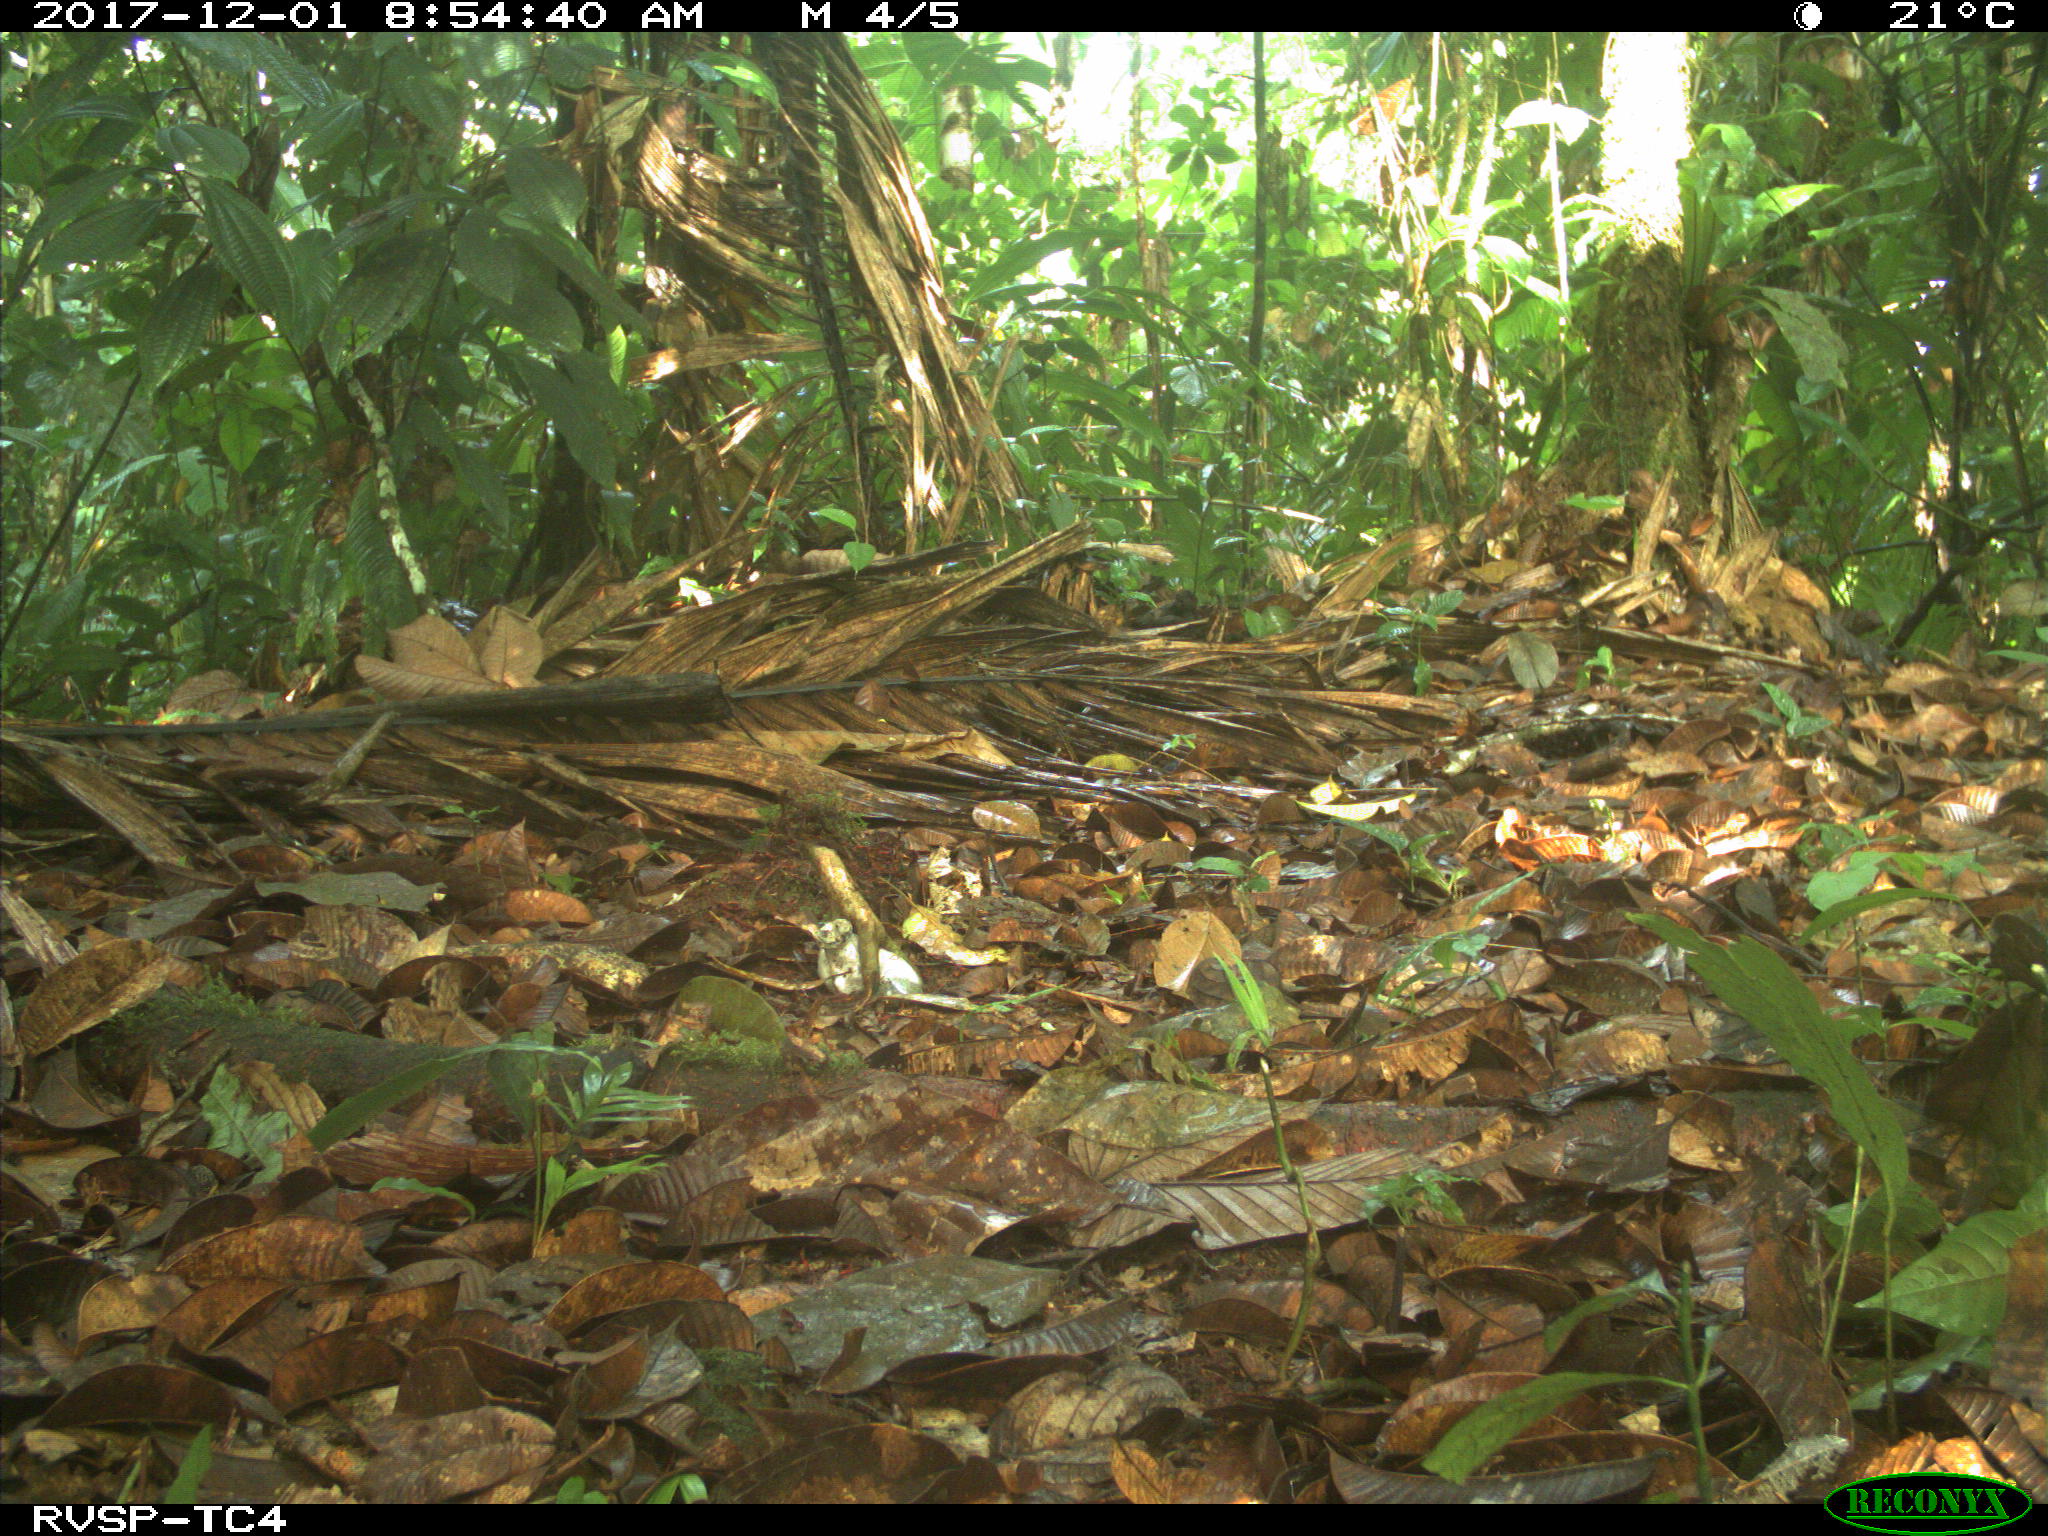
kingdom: Animalia
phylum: Chordata
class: Mammalia
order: Rodentia
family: Sciuridae
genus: Sciurus
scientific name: Sciurus granatensis
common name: Red-tailed squirrel
